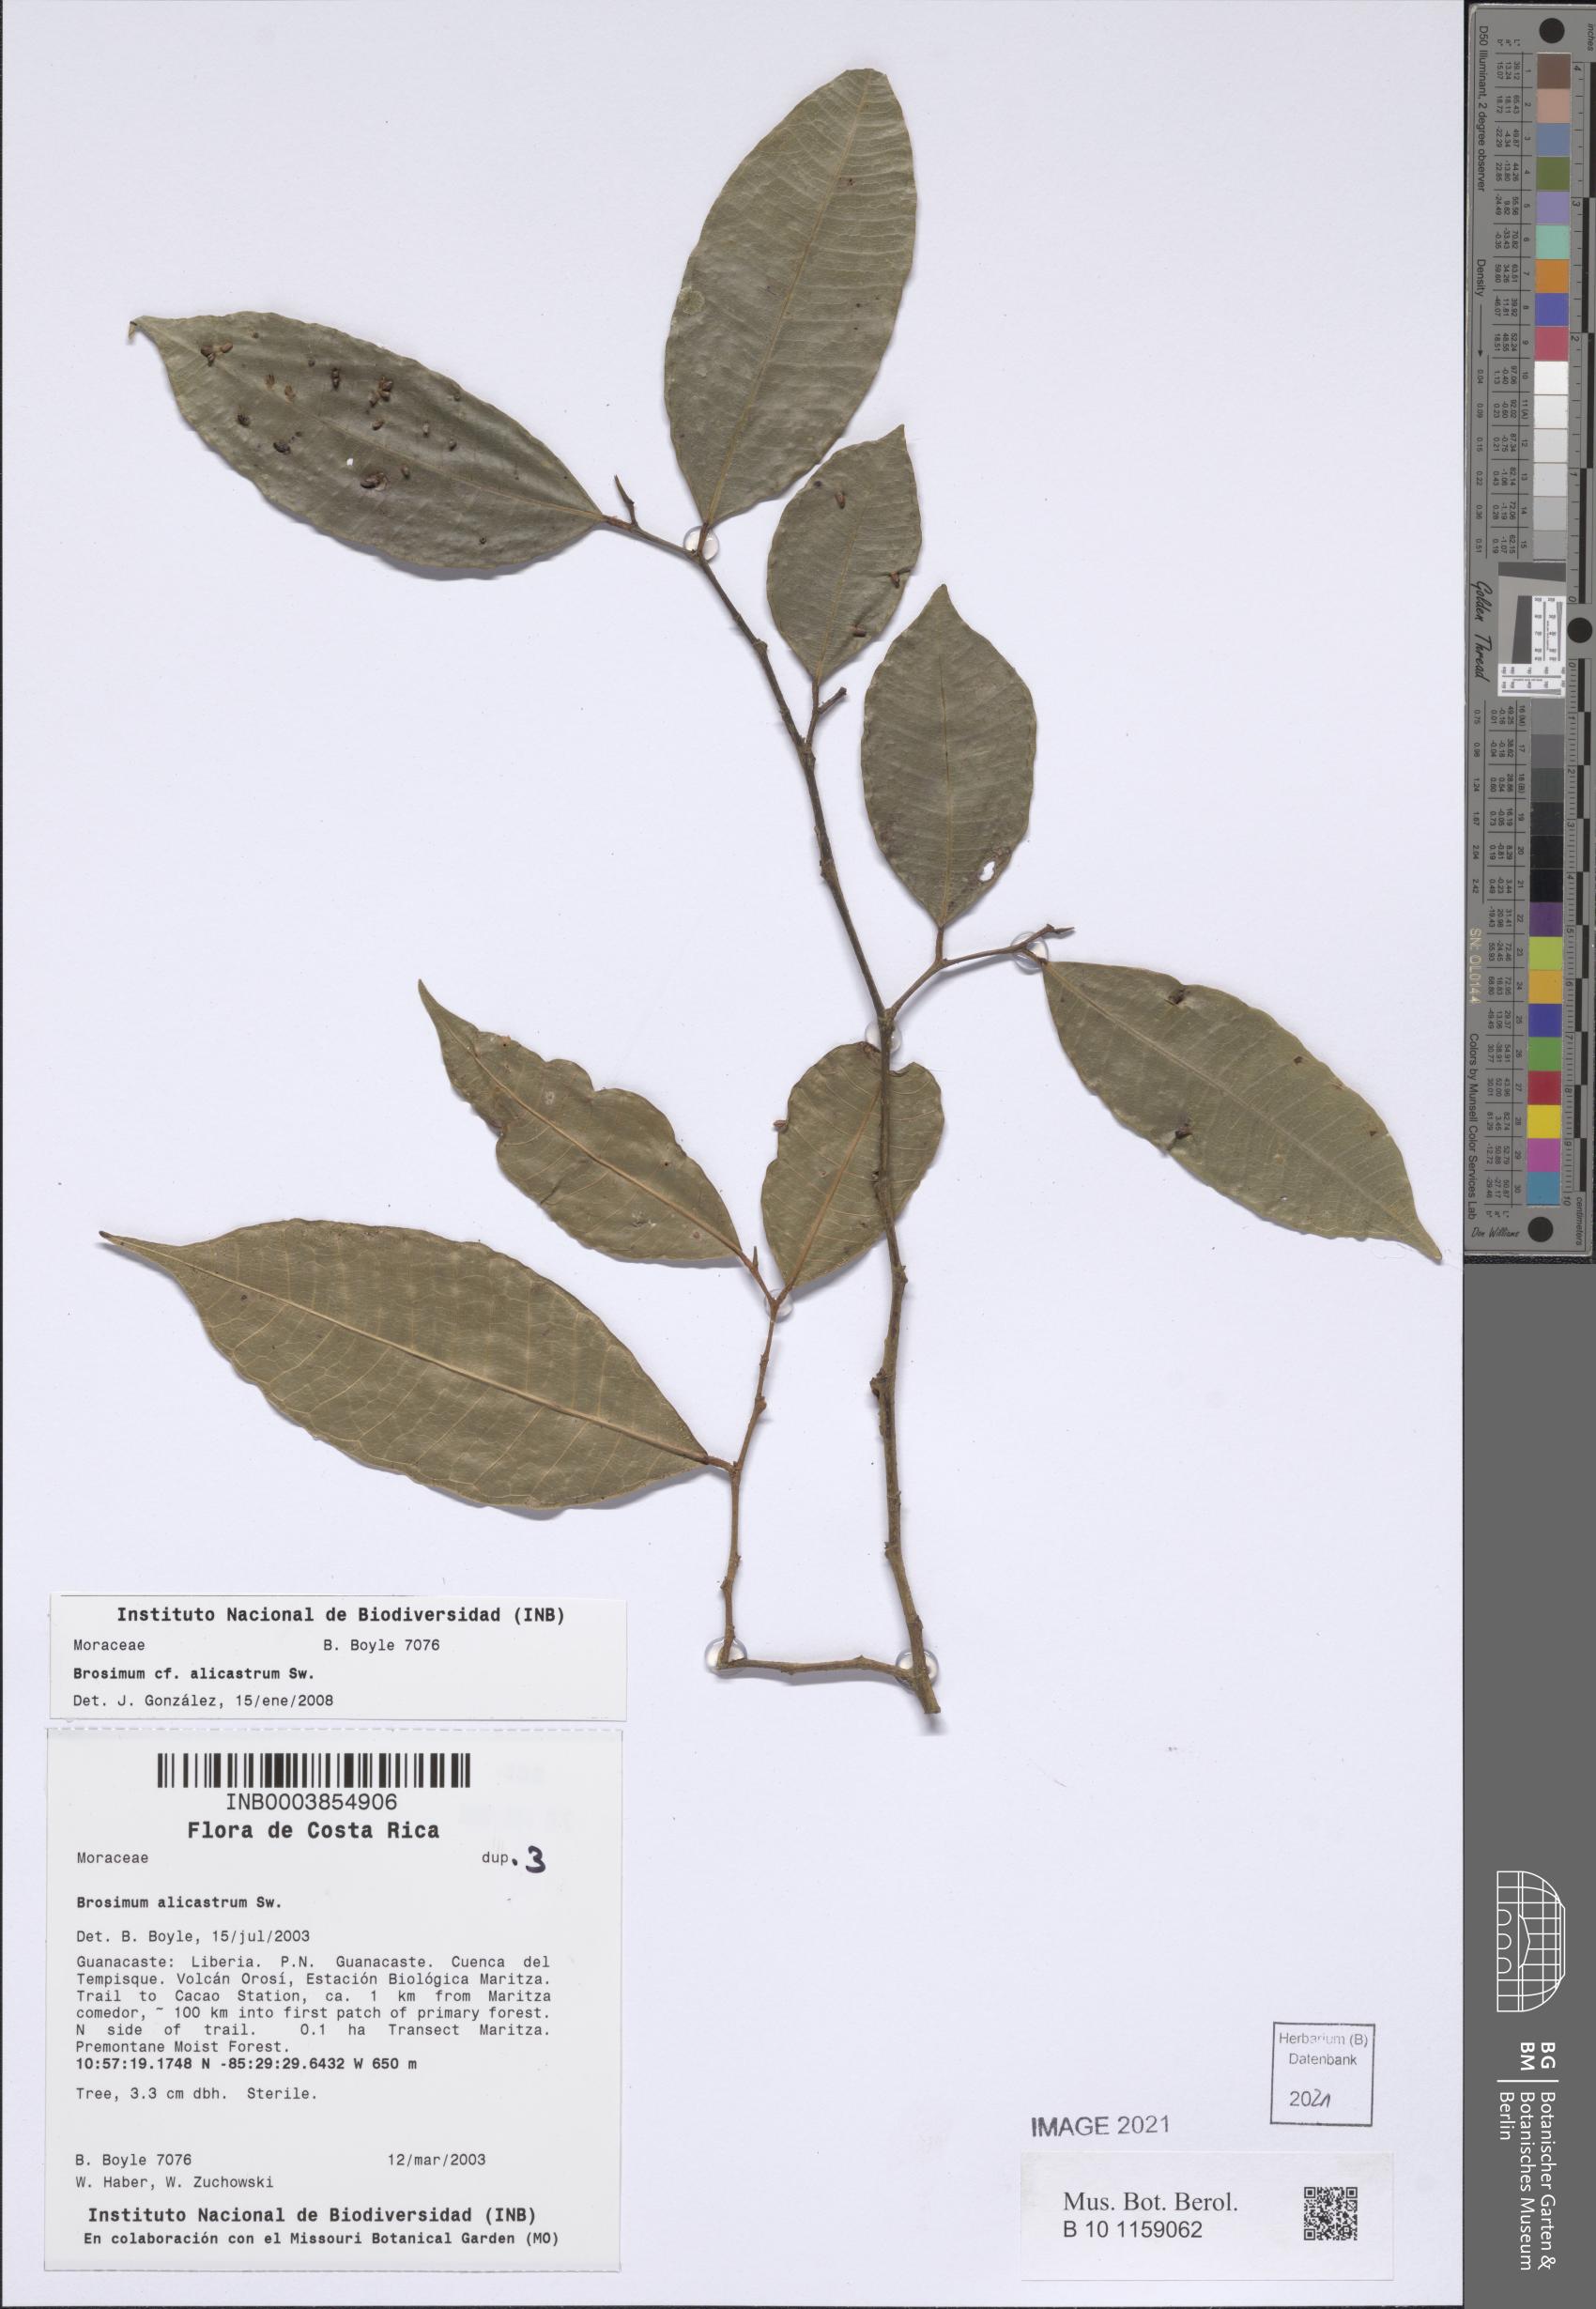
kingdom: Plantae
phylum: Tracheophyta
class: Magnoliopsida
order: Rosales
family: Moraceae
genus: Brosimum
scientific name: Brosimum alicastrum
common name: Breadnut
